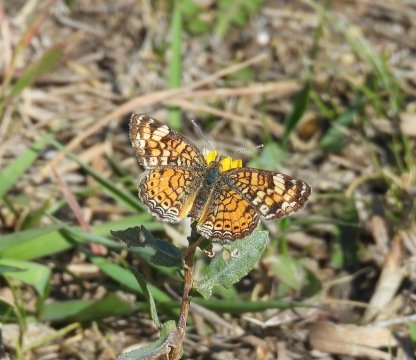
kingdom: Animalia
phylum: Arthropoda
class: Insecta
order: Lepidoptera
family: Nymphalidae
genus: Phyciodes
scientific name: Phyciodes tharos
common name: Pearl Crescent
